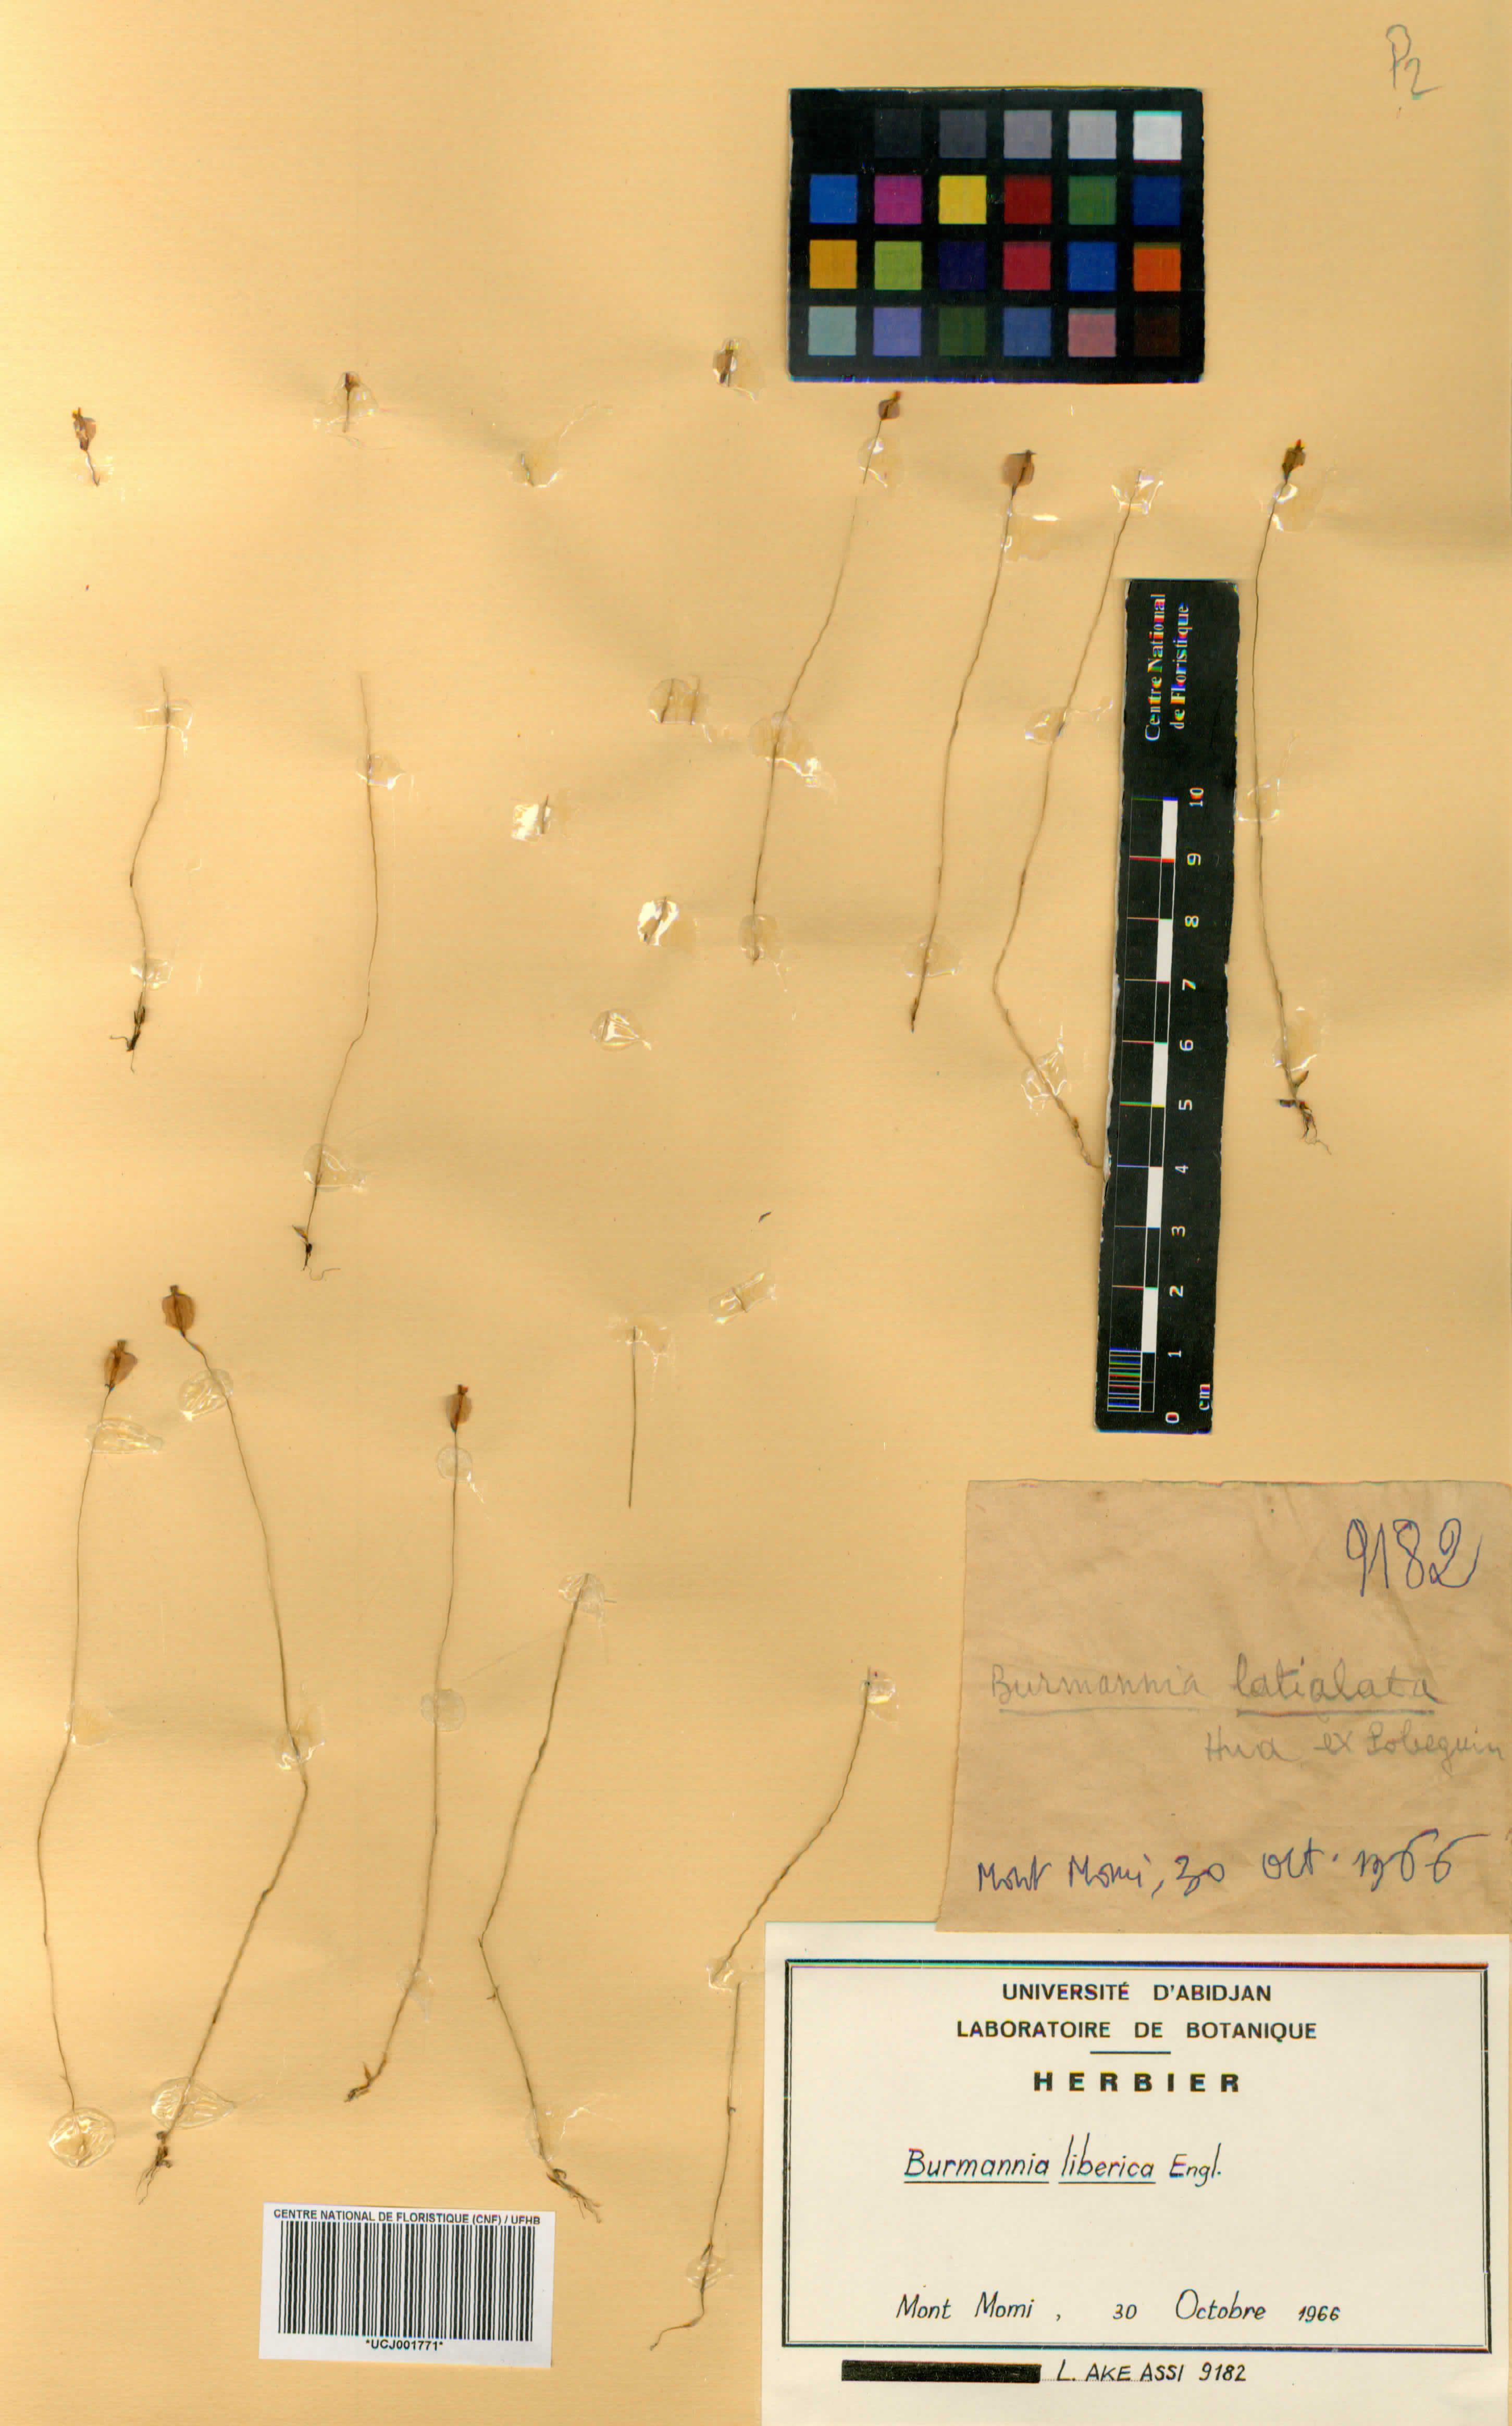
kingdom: Plantae
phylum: Tracheophyta
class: Liliopsida
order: Dioscoreales
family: Burmanniaceae
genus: Burmannia
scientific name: Burmannia latialata
